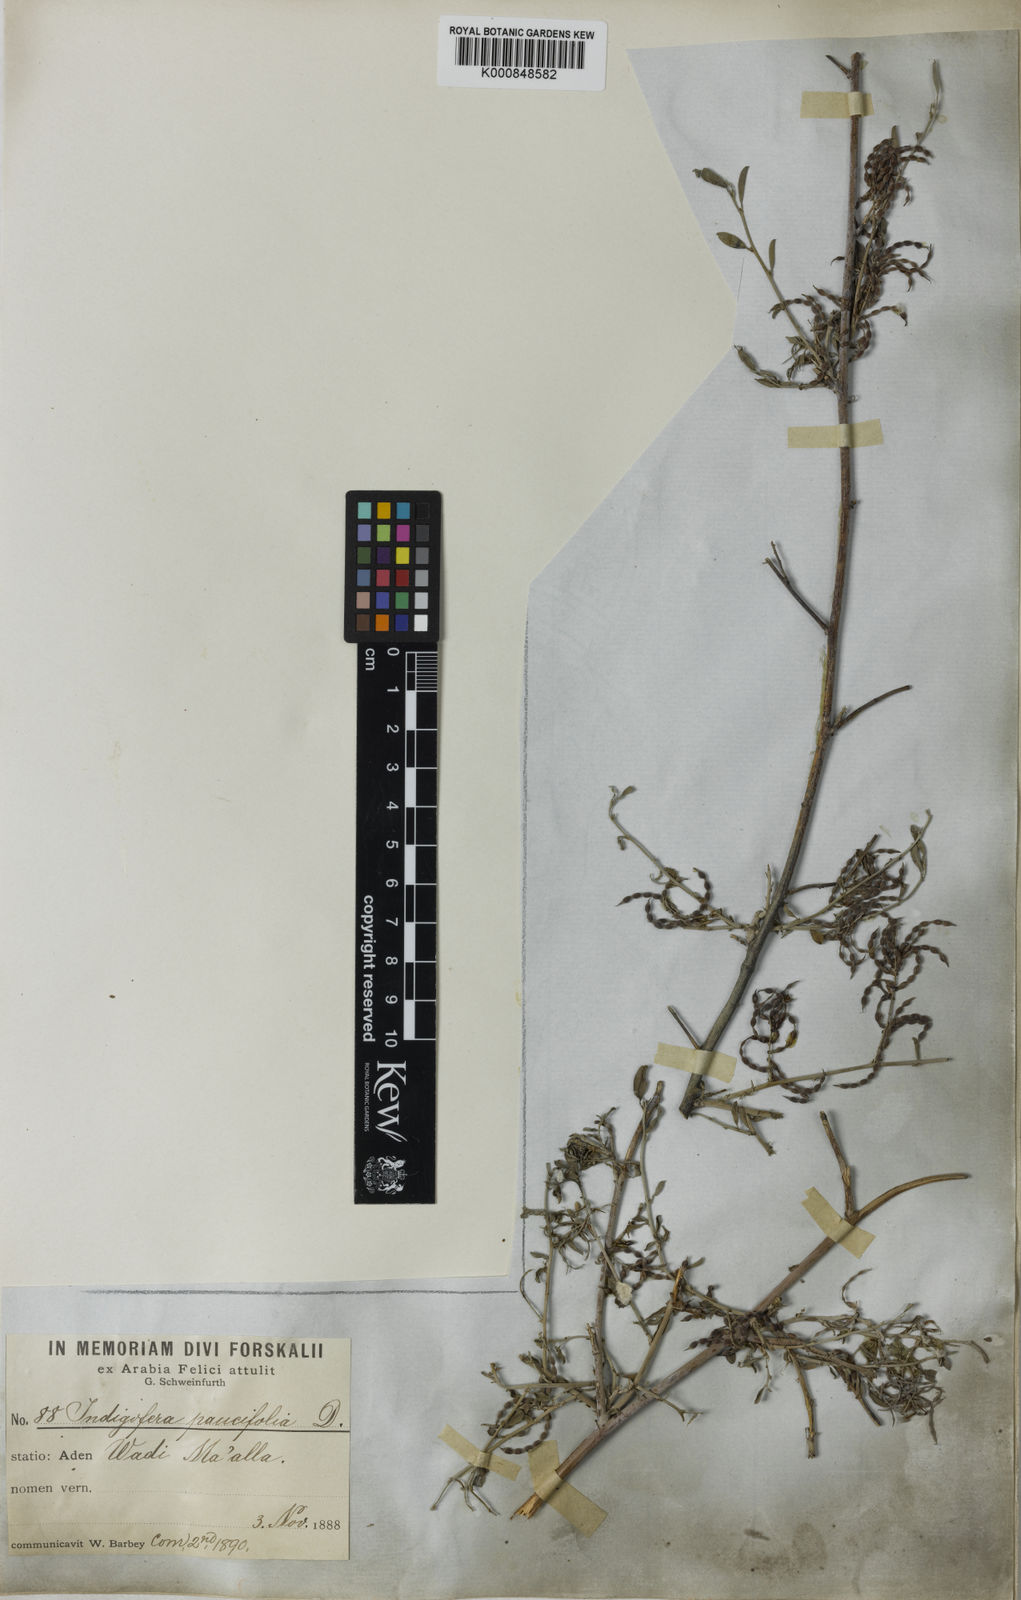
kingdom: Plantae
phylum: Tracheophyta
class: Magnoliopsida
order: Fabales
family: Fabaceae
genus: Indigofera
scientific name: Indigofera oblongifolia
